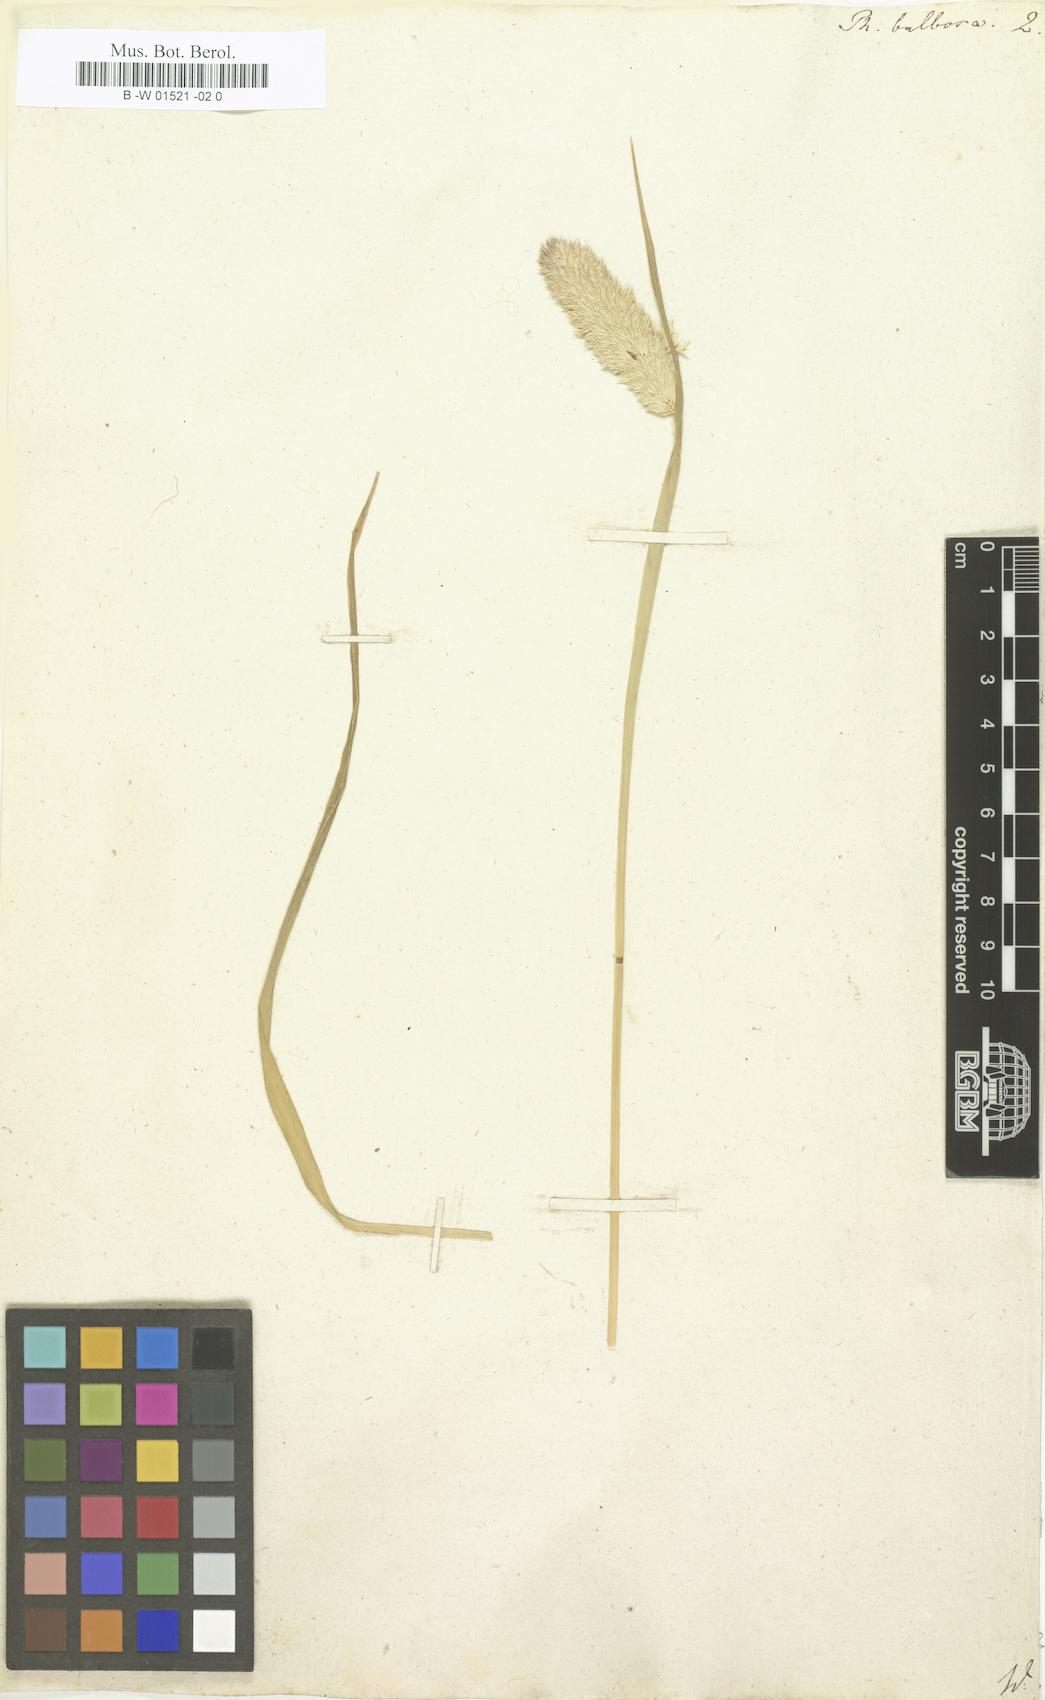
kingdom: Plantae
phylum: Tracheophyta
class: Liliopsida
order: Poales
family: Poaceae
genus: Phalaris
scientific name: Phalaris bulbosa
